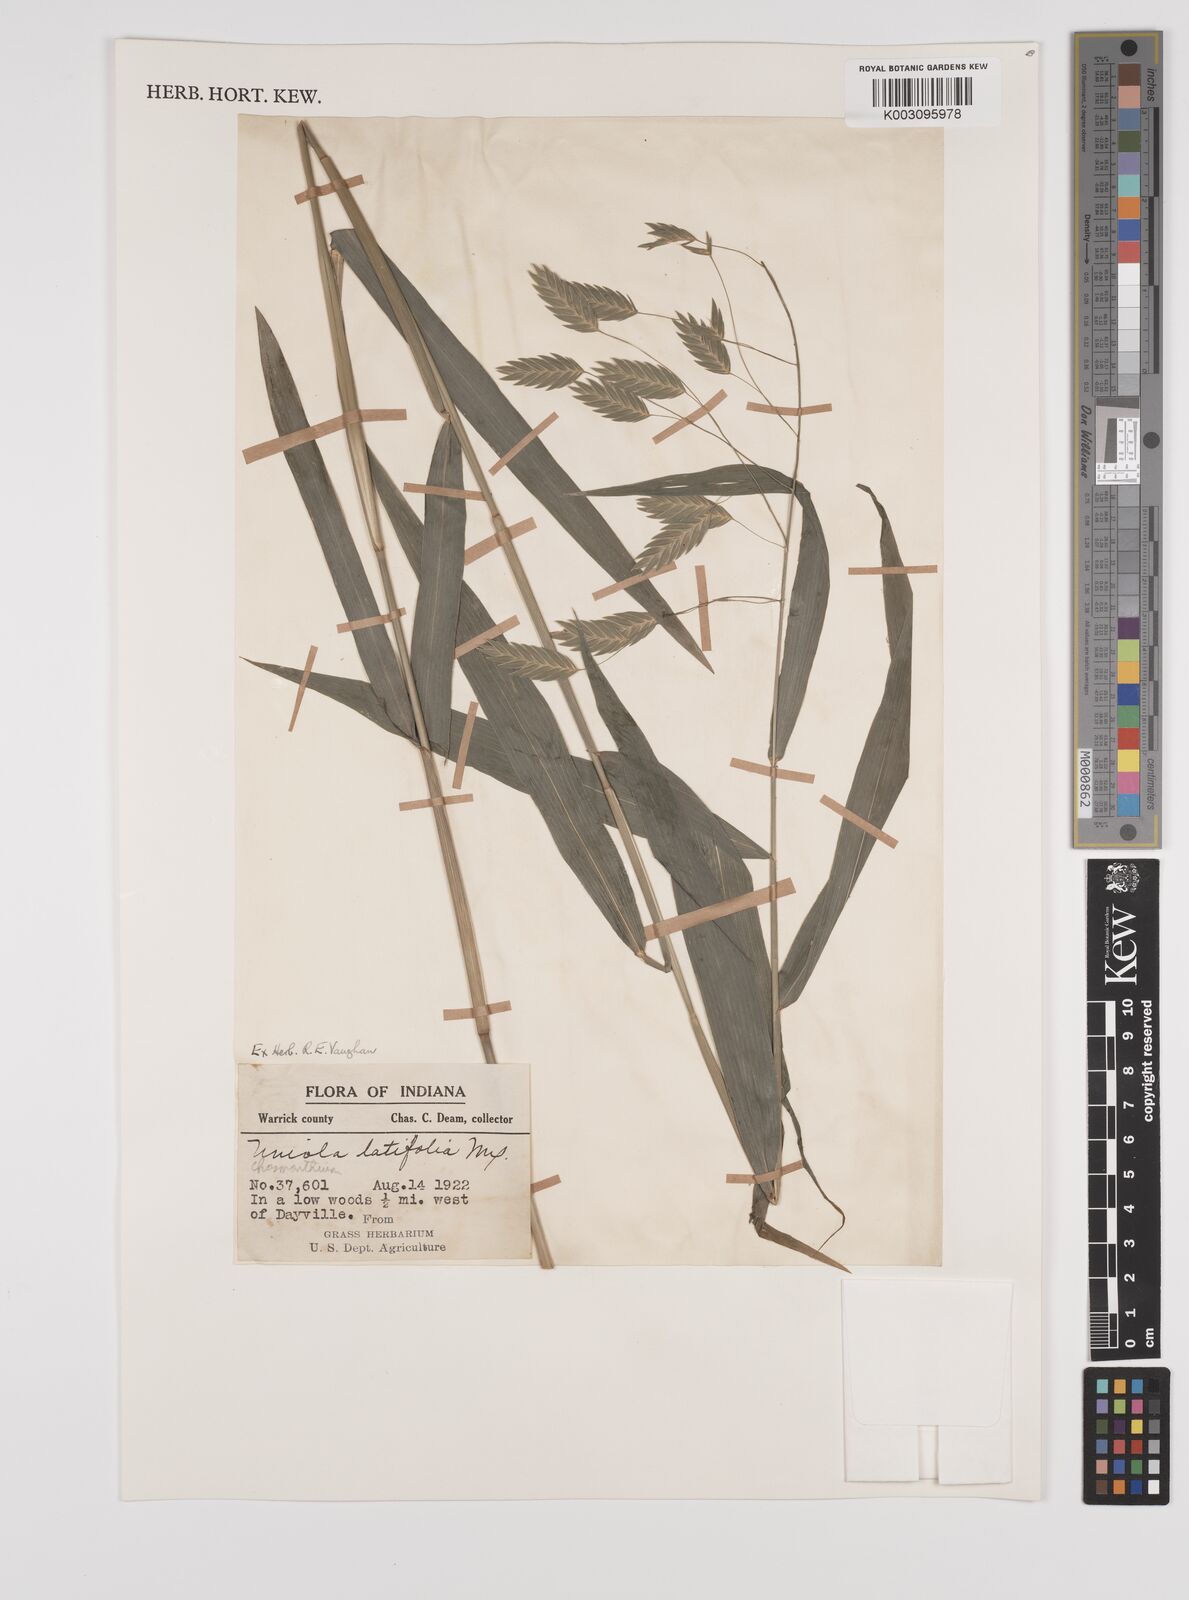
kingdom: Plantae
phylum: Tracheophyta
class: Liliopsida
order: Poales
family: Poaceae
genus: Chasmanthium
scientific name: Chasmanthium latifolium
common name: Broad-leaved chasmanthium
